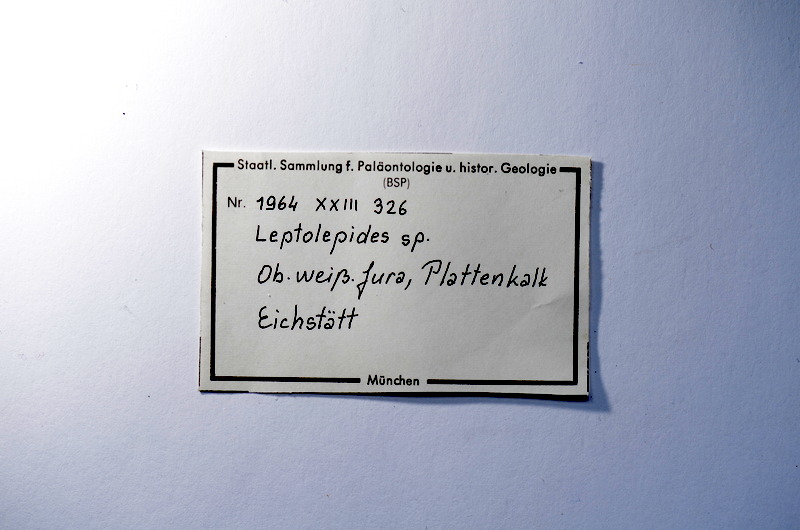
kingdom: Animalia
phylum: Chordata
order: Salmoniformes
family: Orthogonikleithridae
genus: Leptolepides
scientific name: Leptolepides
